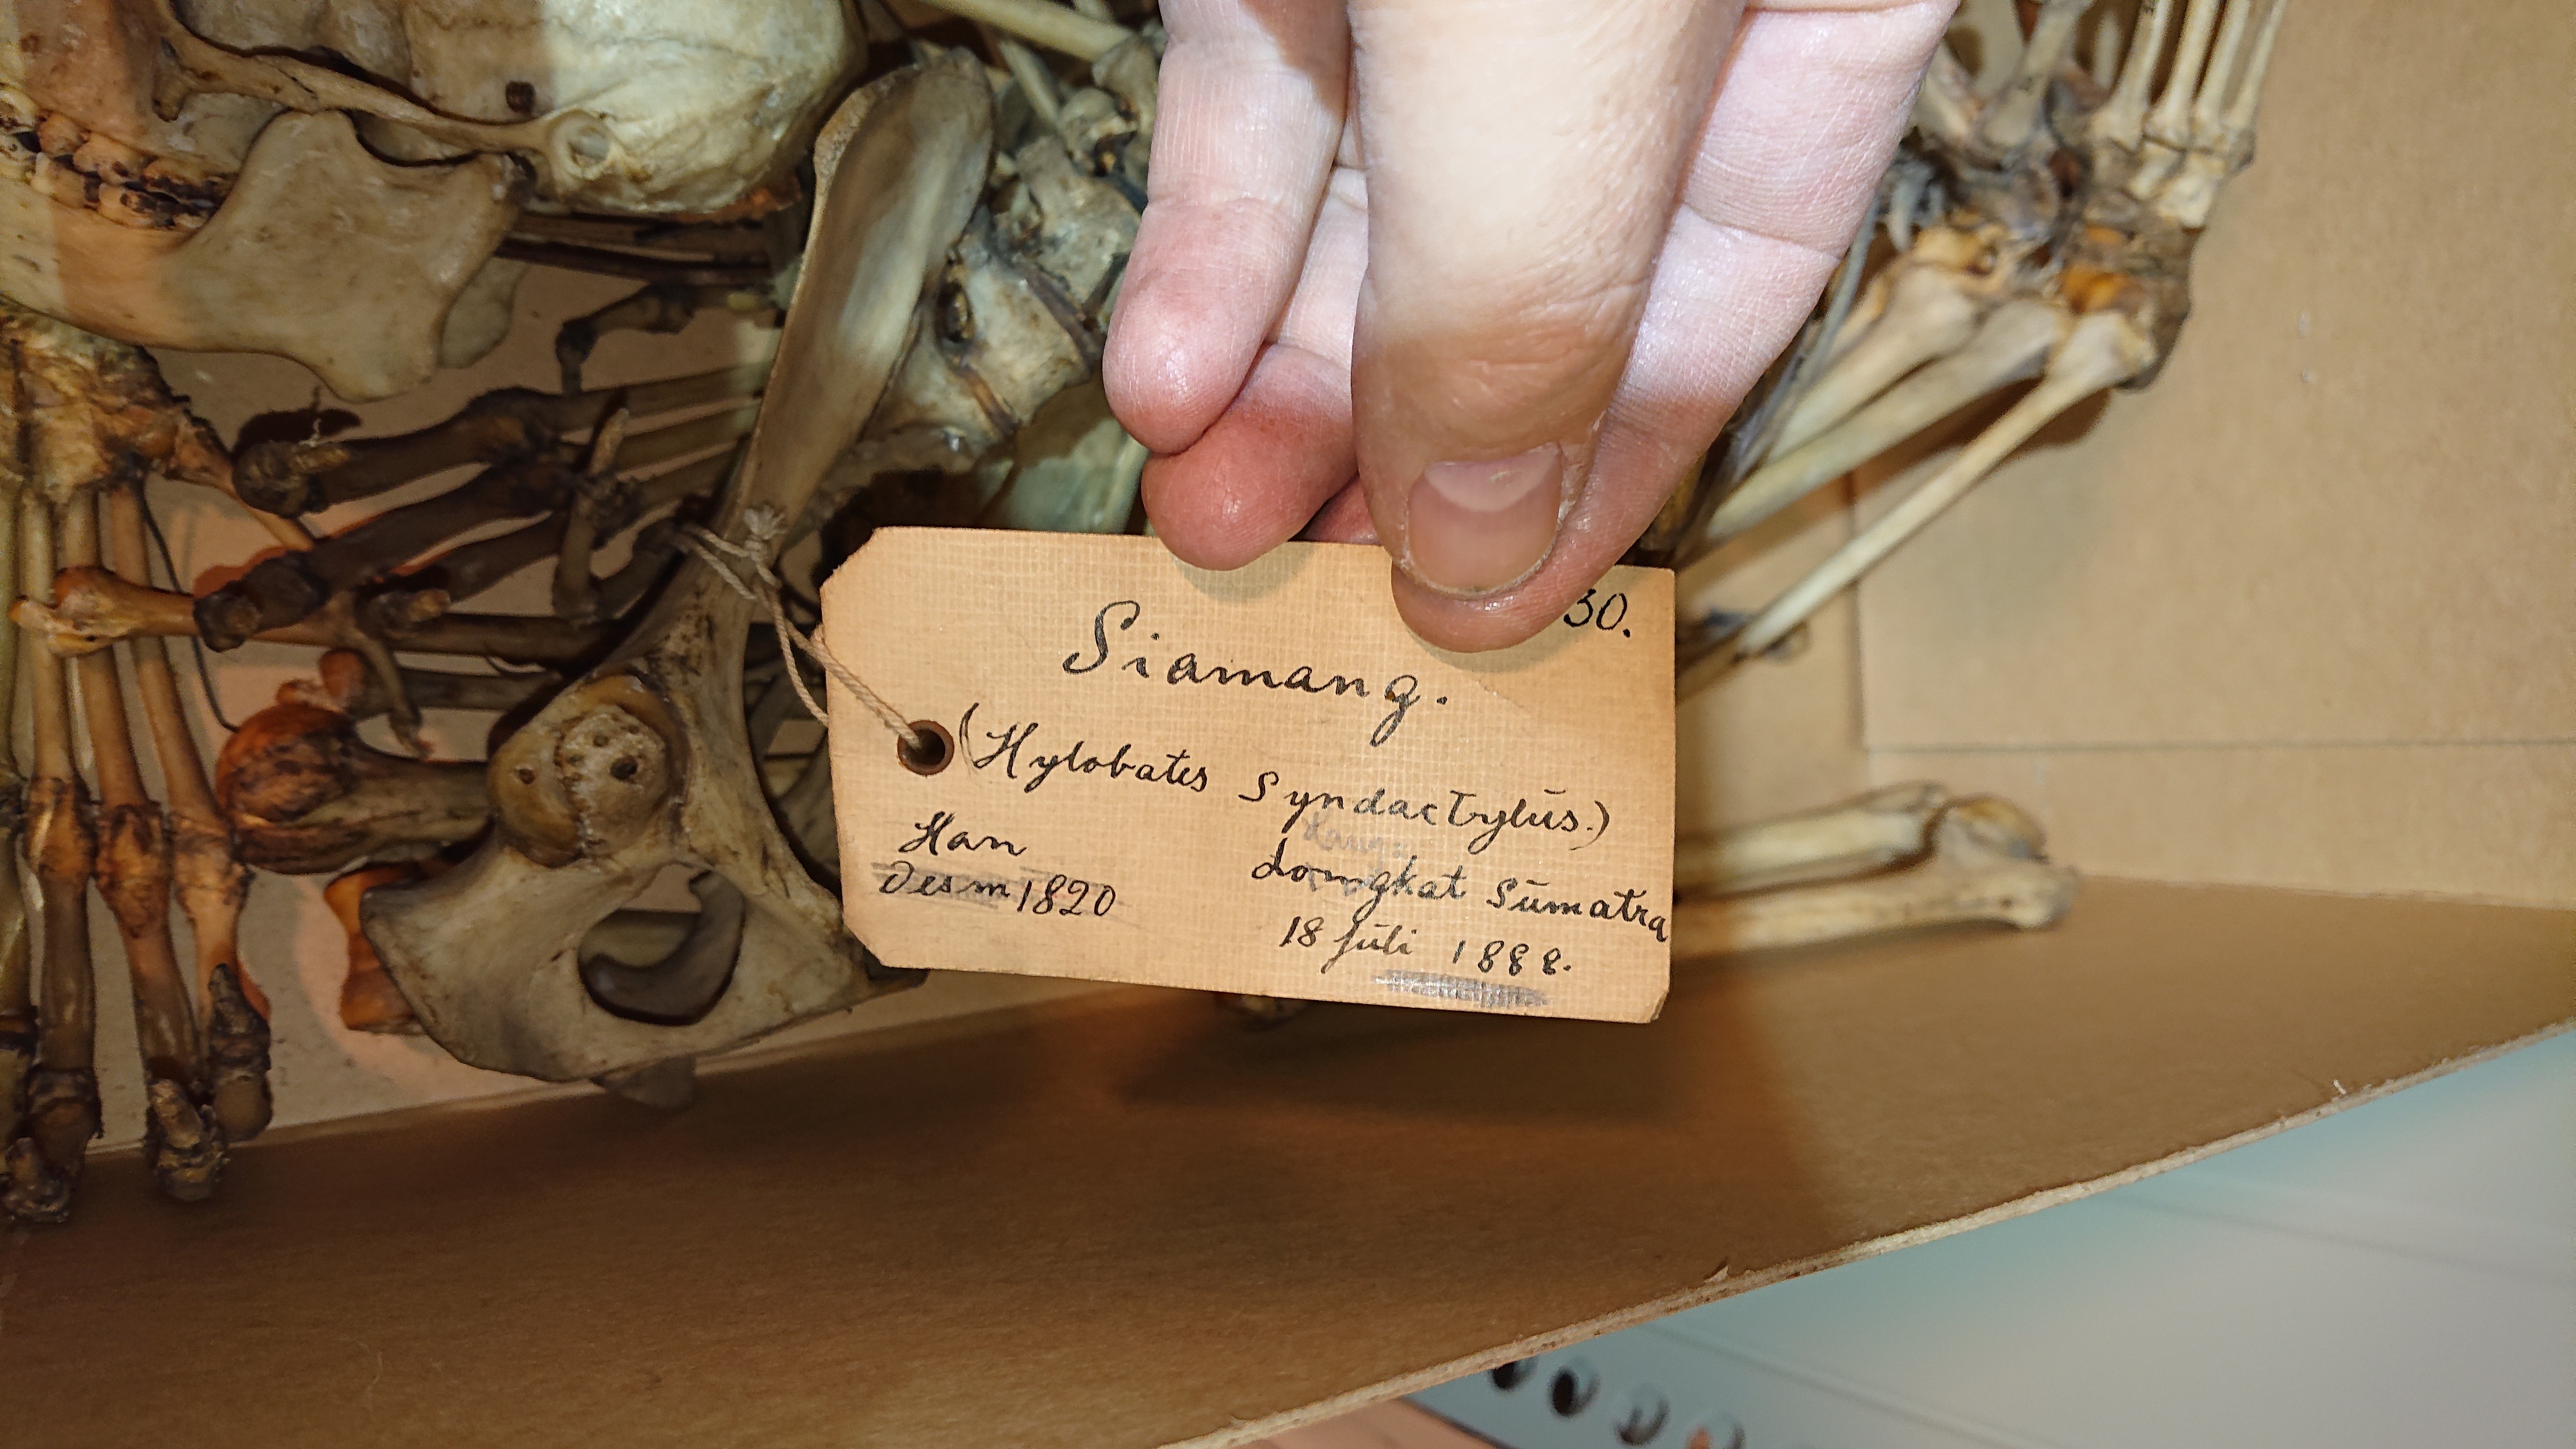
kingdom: Animalia
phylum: Chordata
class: Mammalia
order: Primates
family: Hylobatidae
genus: Symphalangus
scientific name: Symphalangus syndactylus
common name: Siamang
